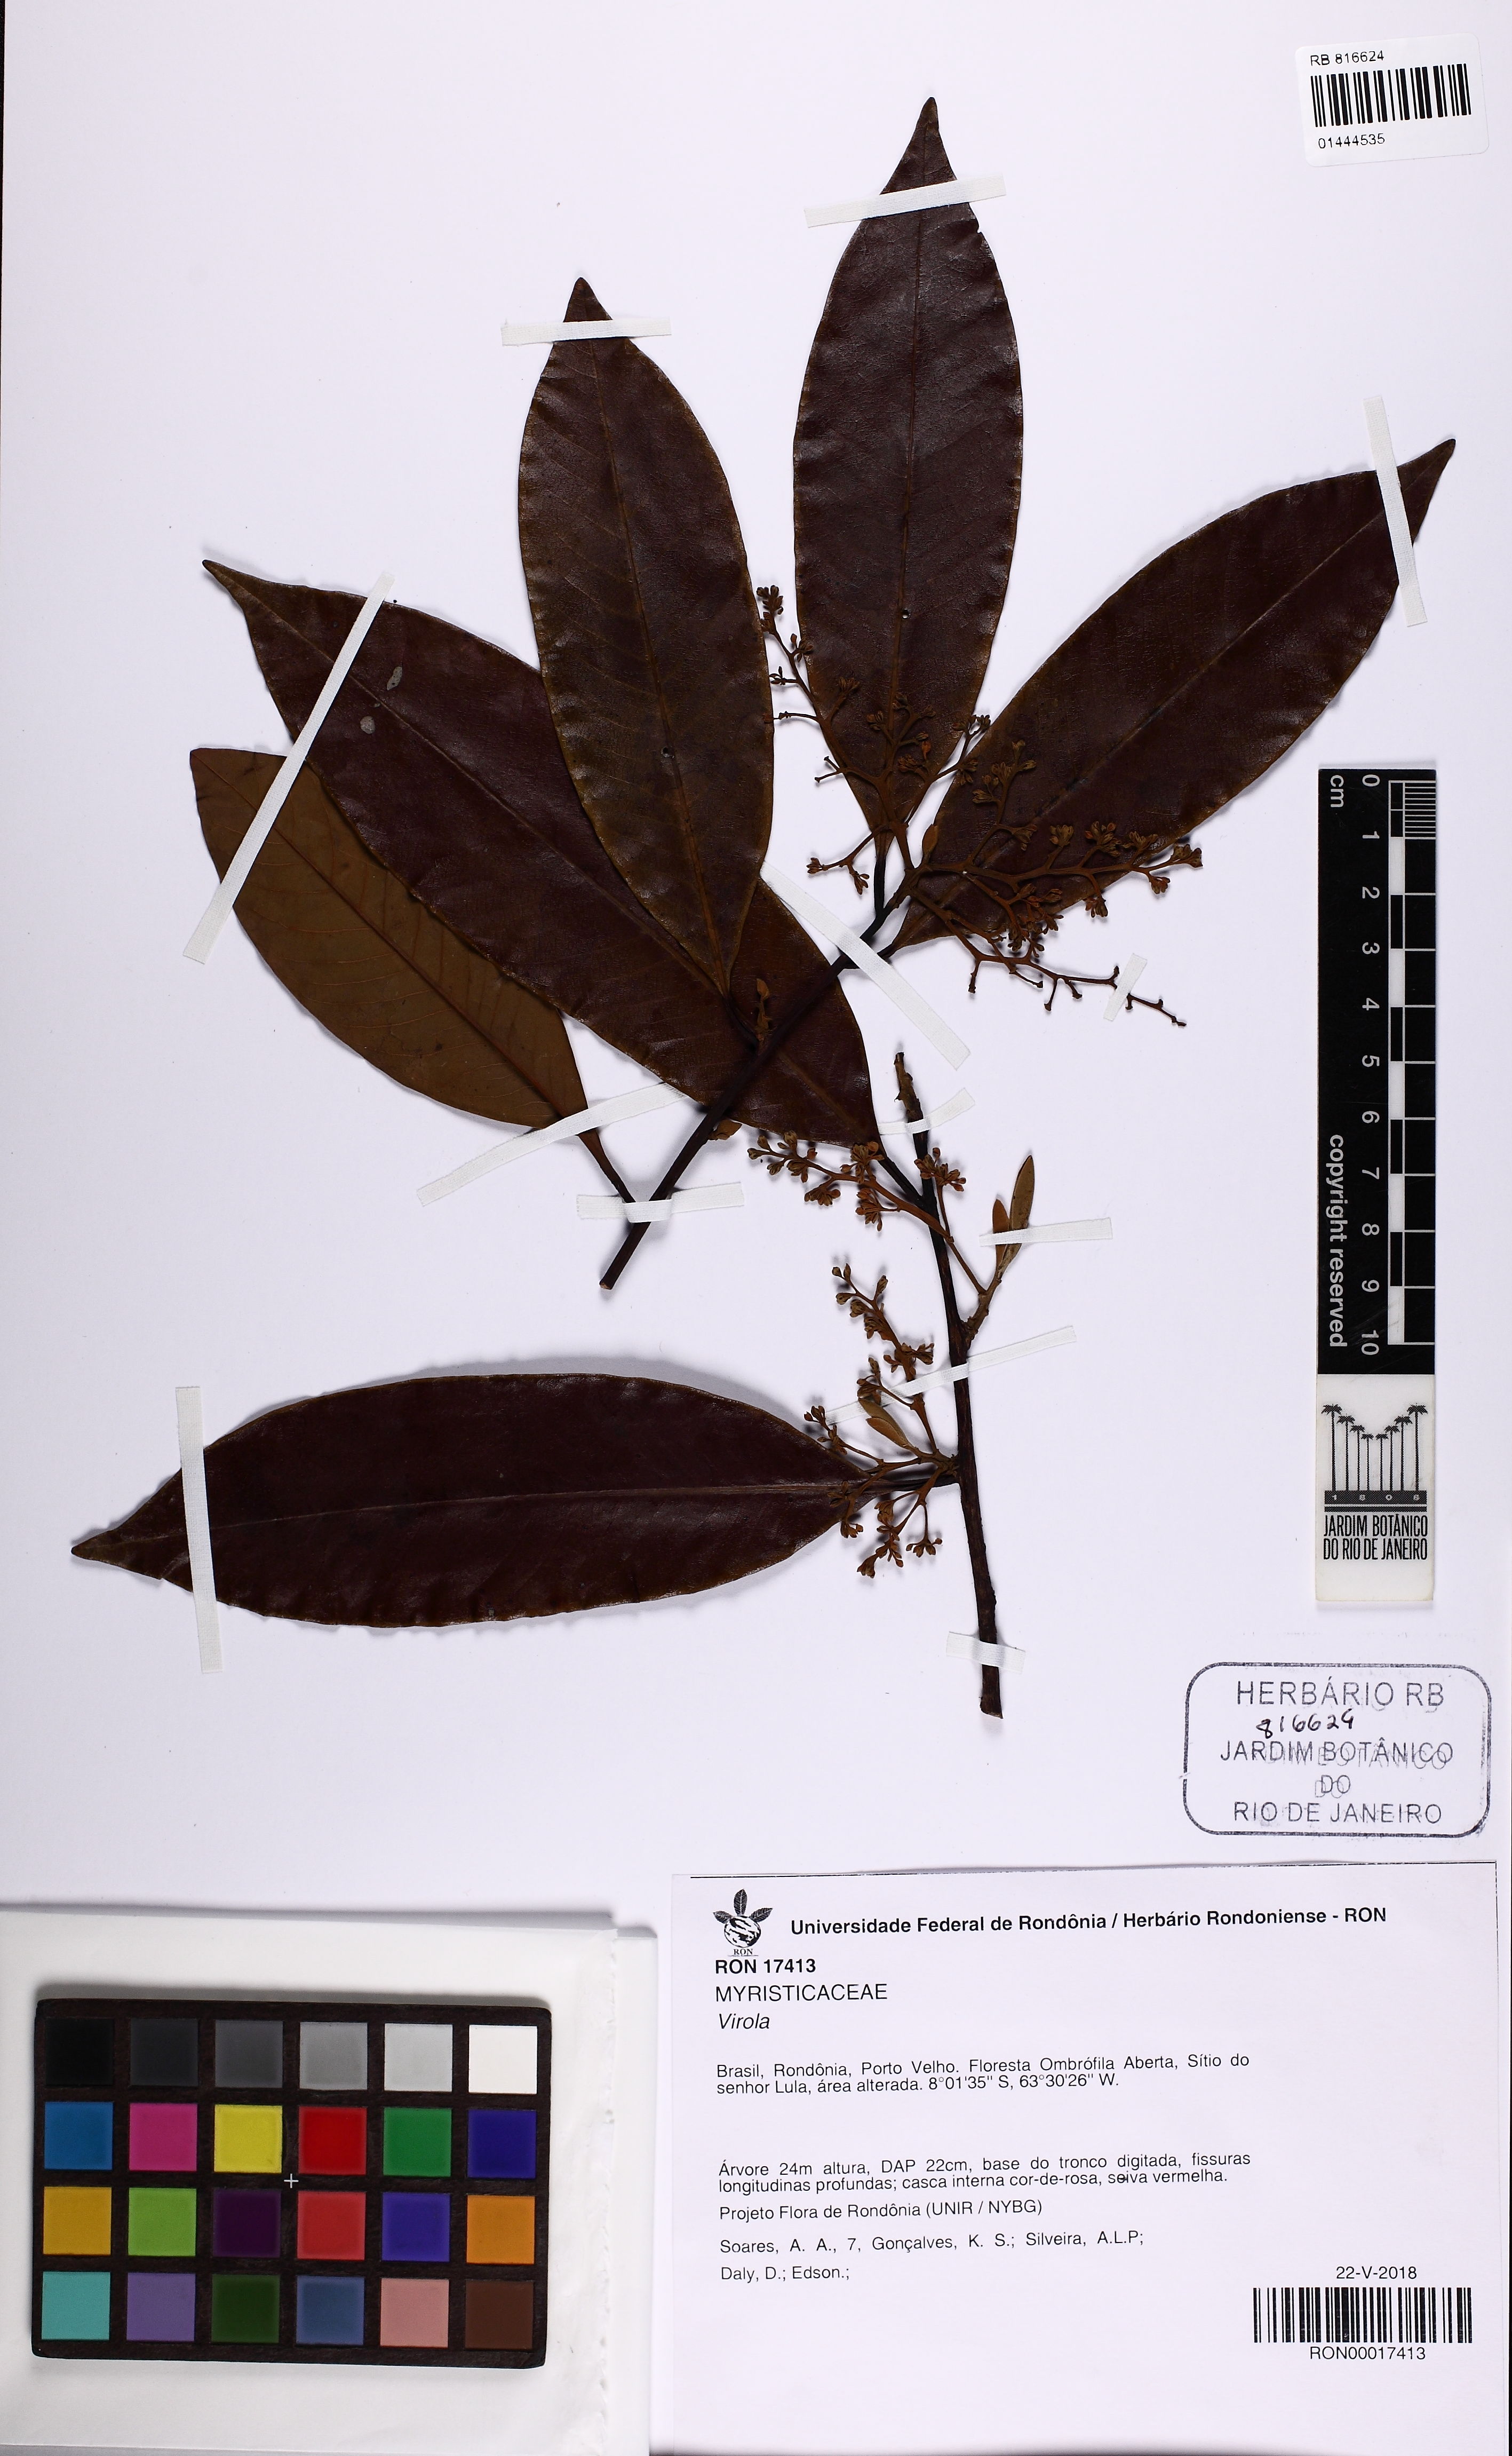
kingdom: Plantae
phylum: Tracheophyta
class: Magnoliopsida
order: Magnoliales
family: Myristicaceae
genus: Virola
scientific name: Virola
